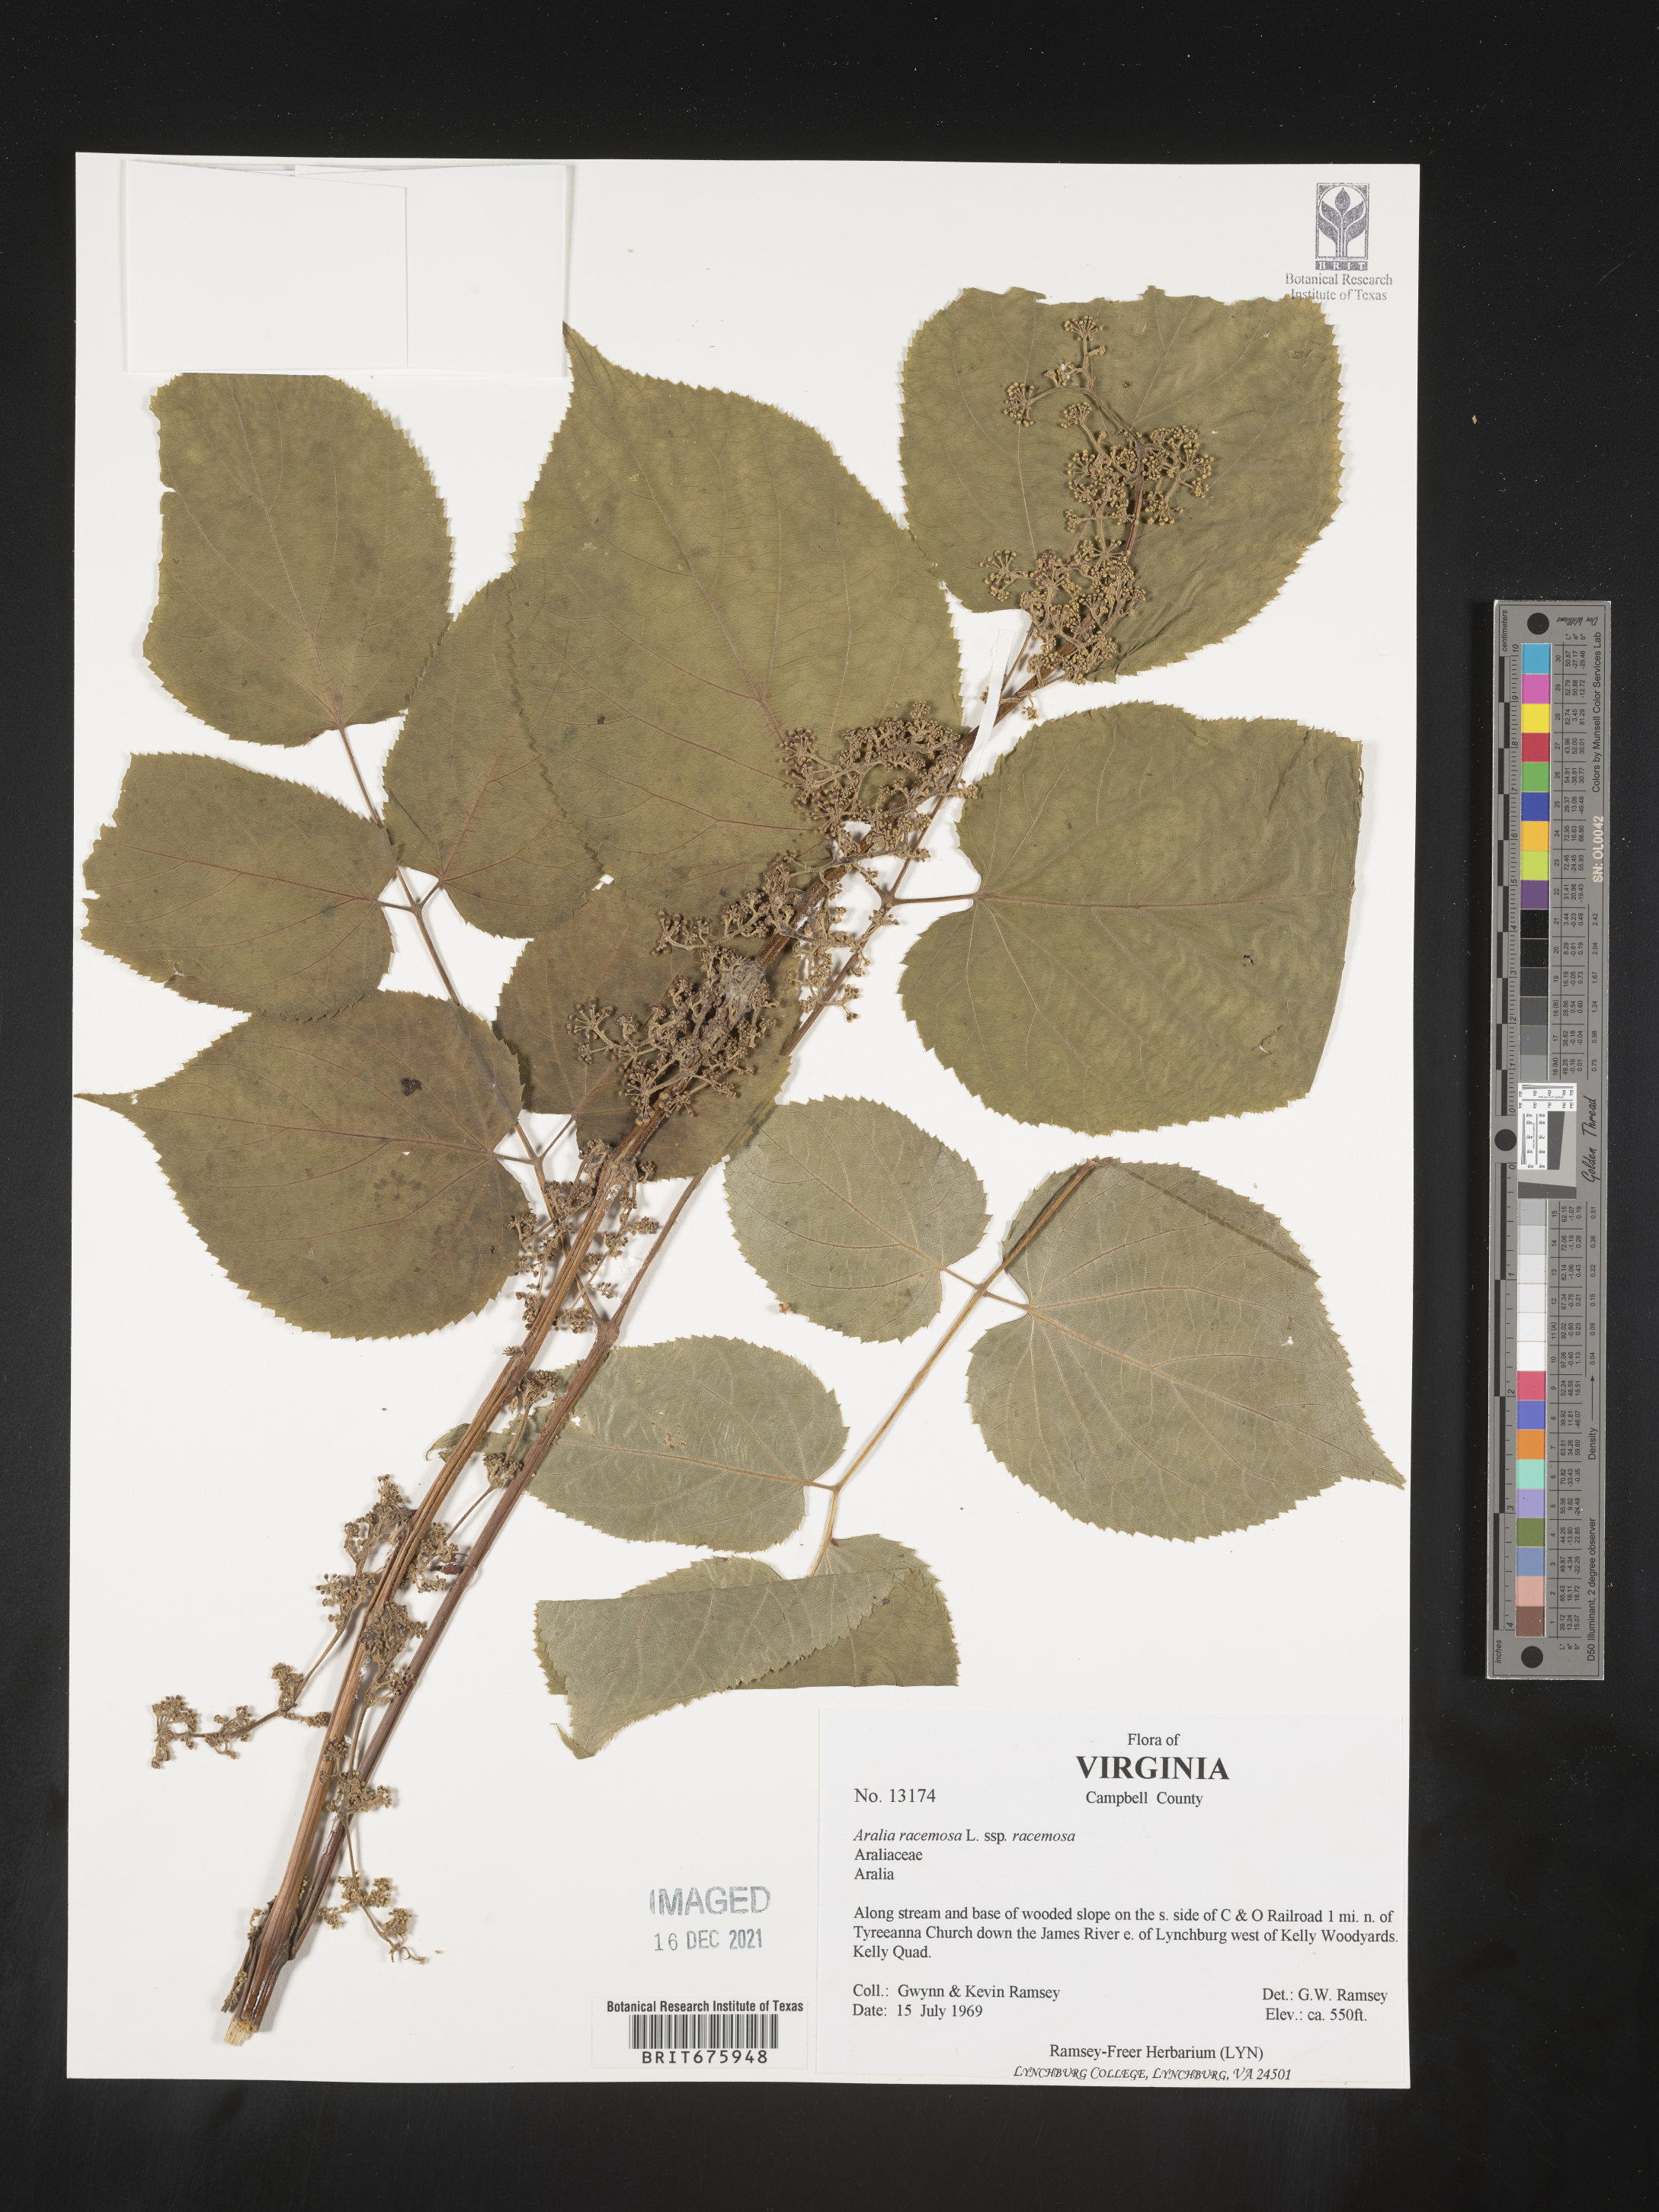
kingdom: Plantae
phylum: Tracheophyta
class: Magnoliopsida
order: Apiales
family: Araliaceae
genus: Aralia
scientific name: Aralia racemosa
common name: American-spikenard
